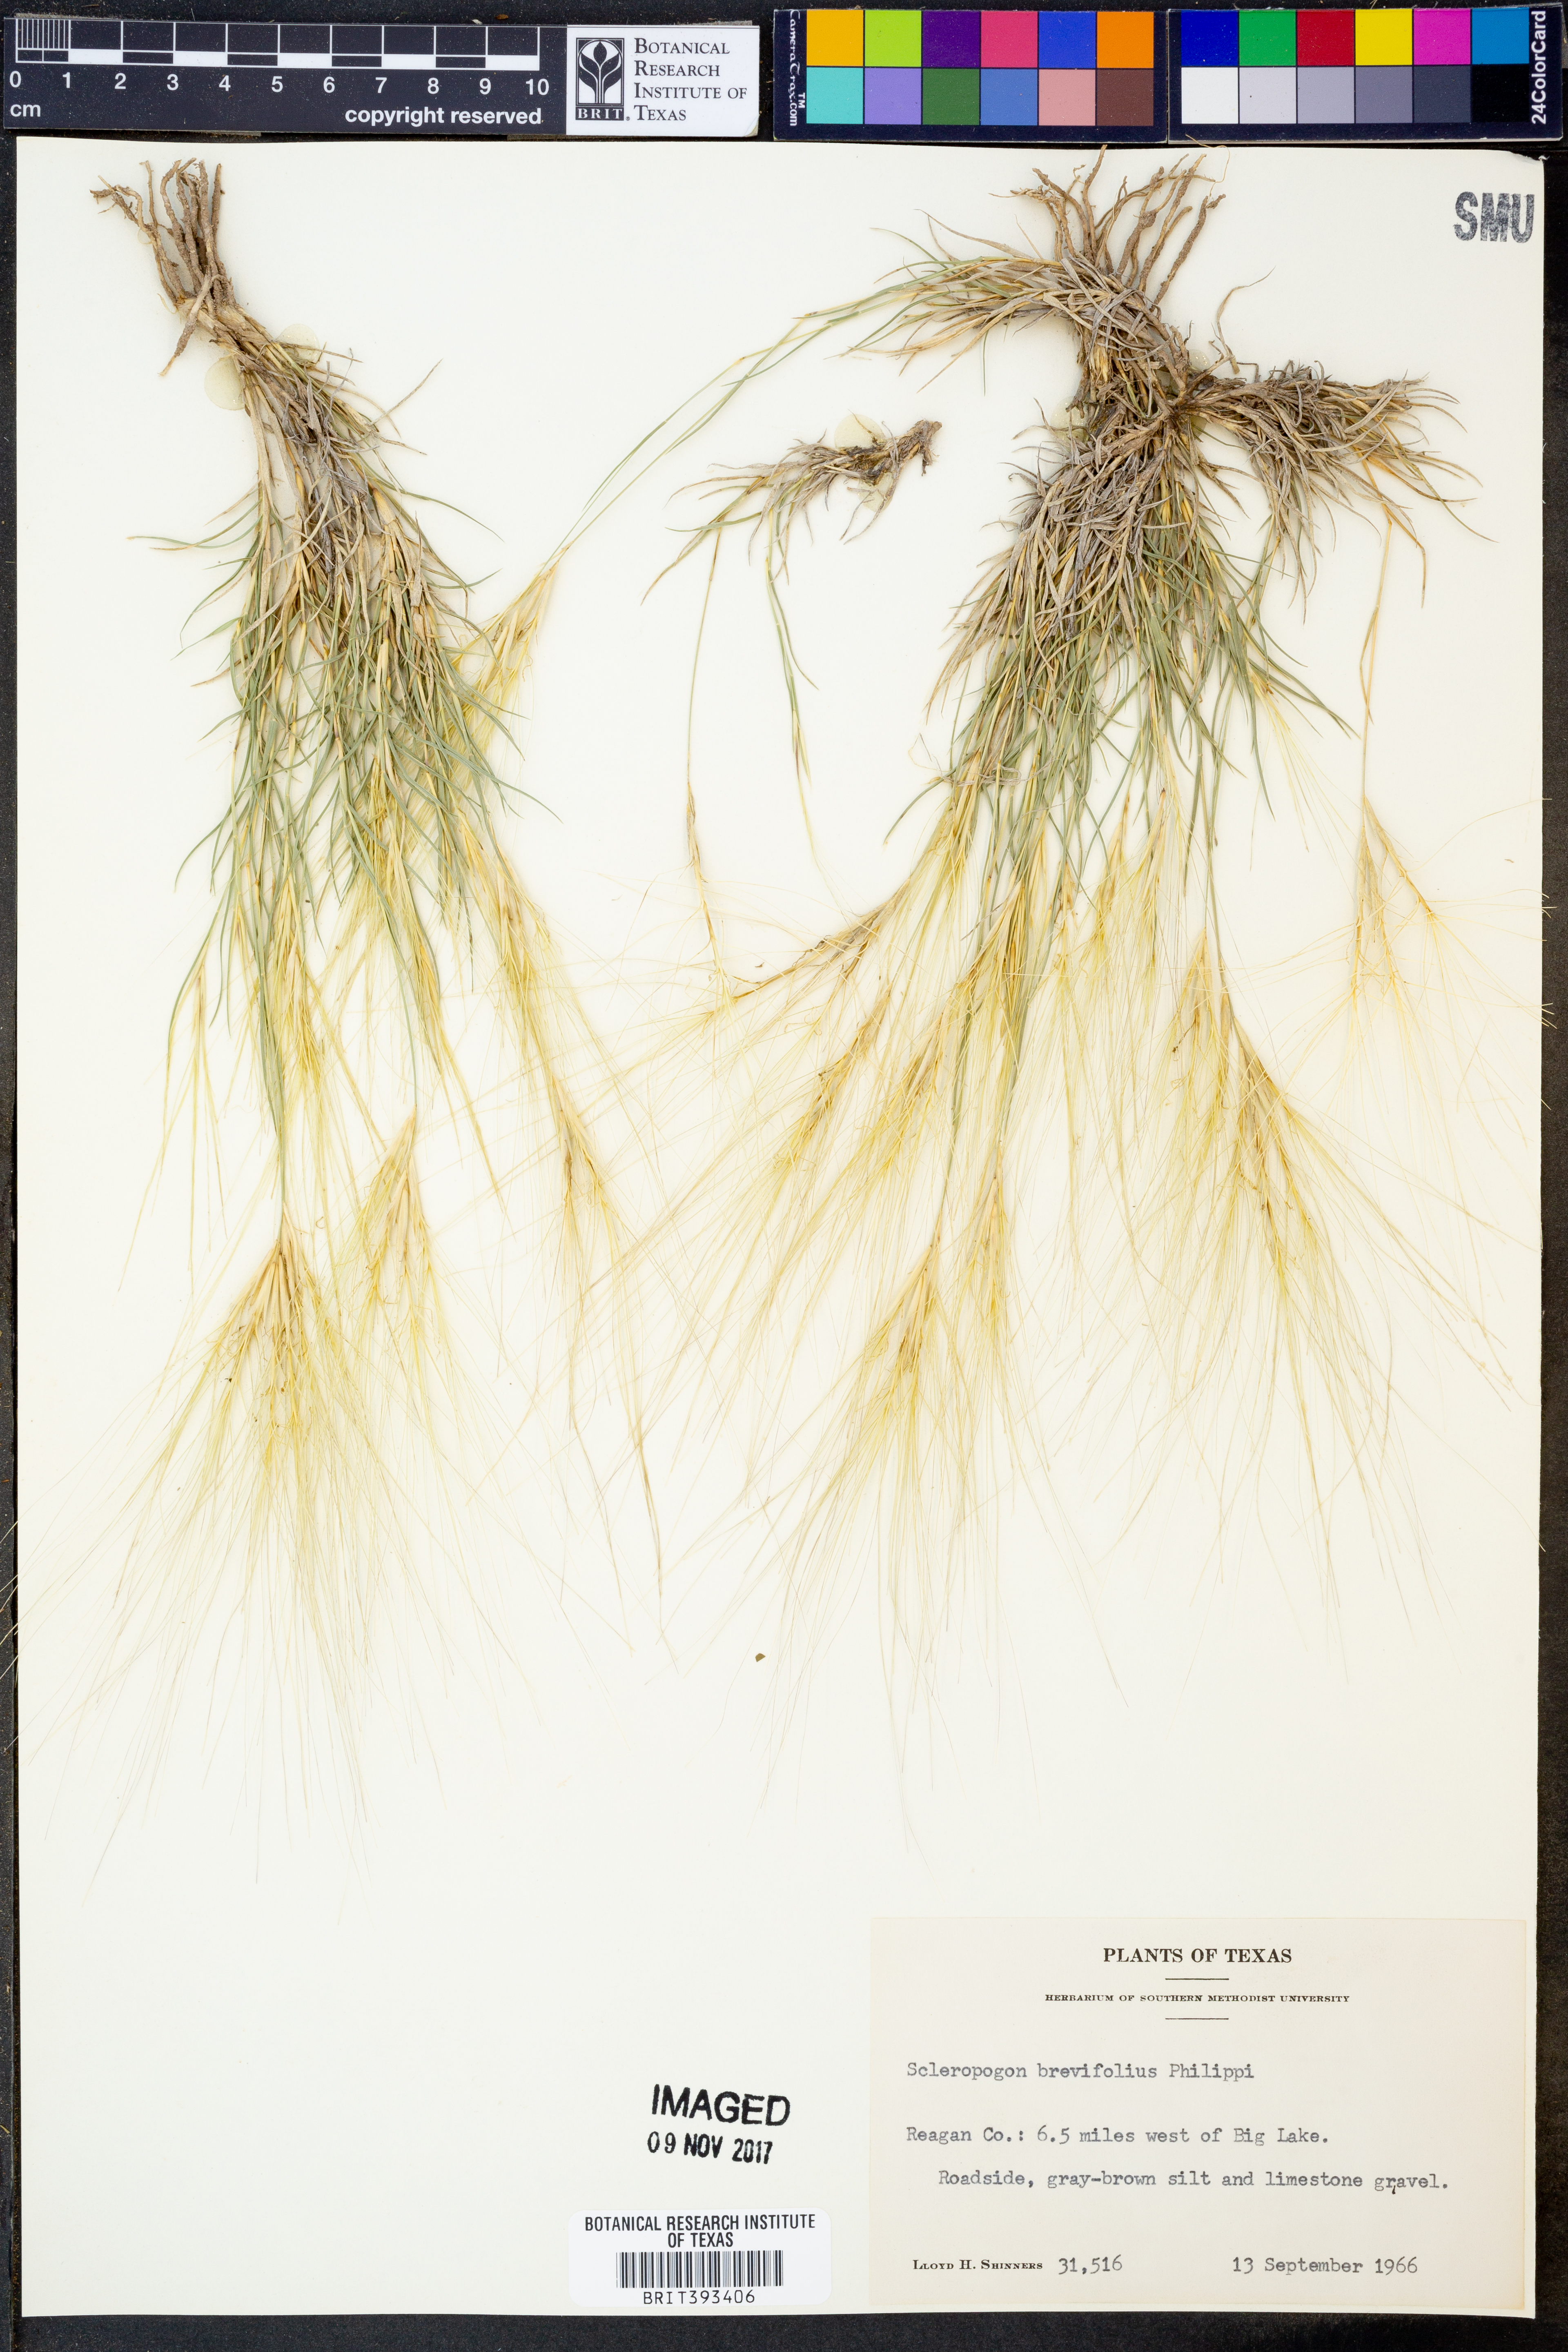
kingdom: Plantae
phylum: Tracheophyta
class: Liliopsida
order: Poales
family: Poaceae
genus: Scleropogon
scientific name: Scleropogon brevifolius
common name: Burro grass
